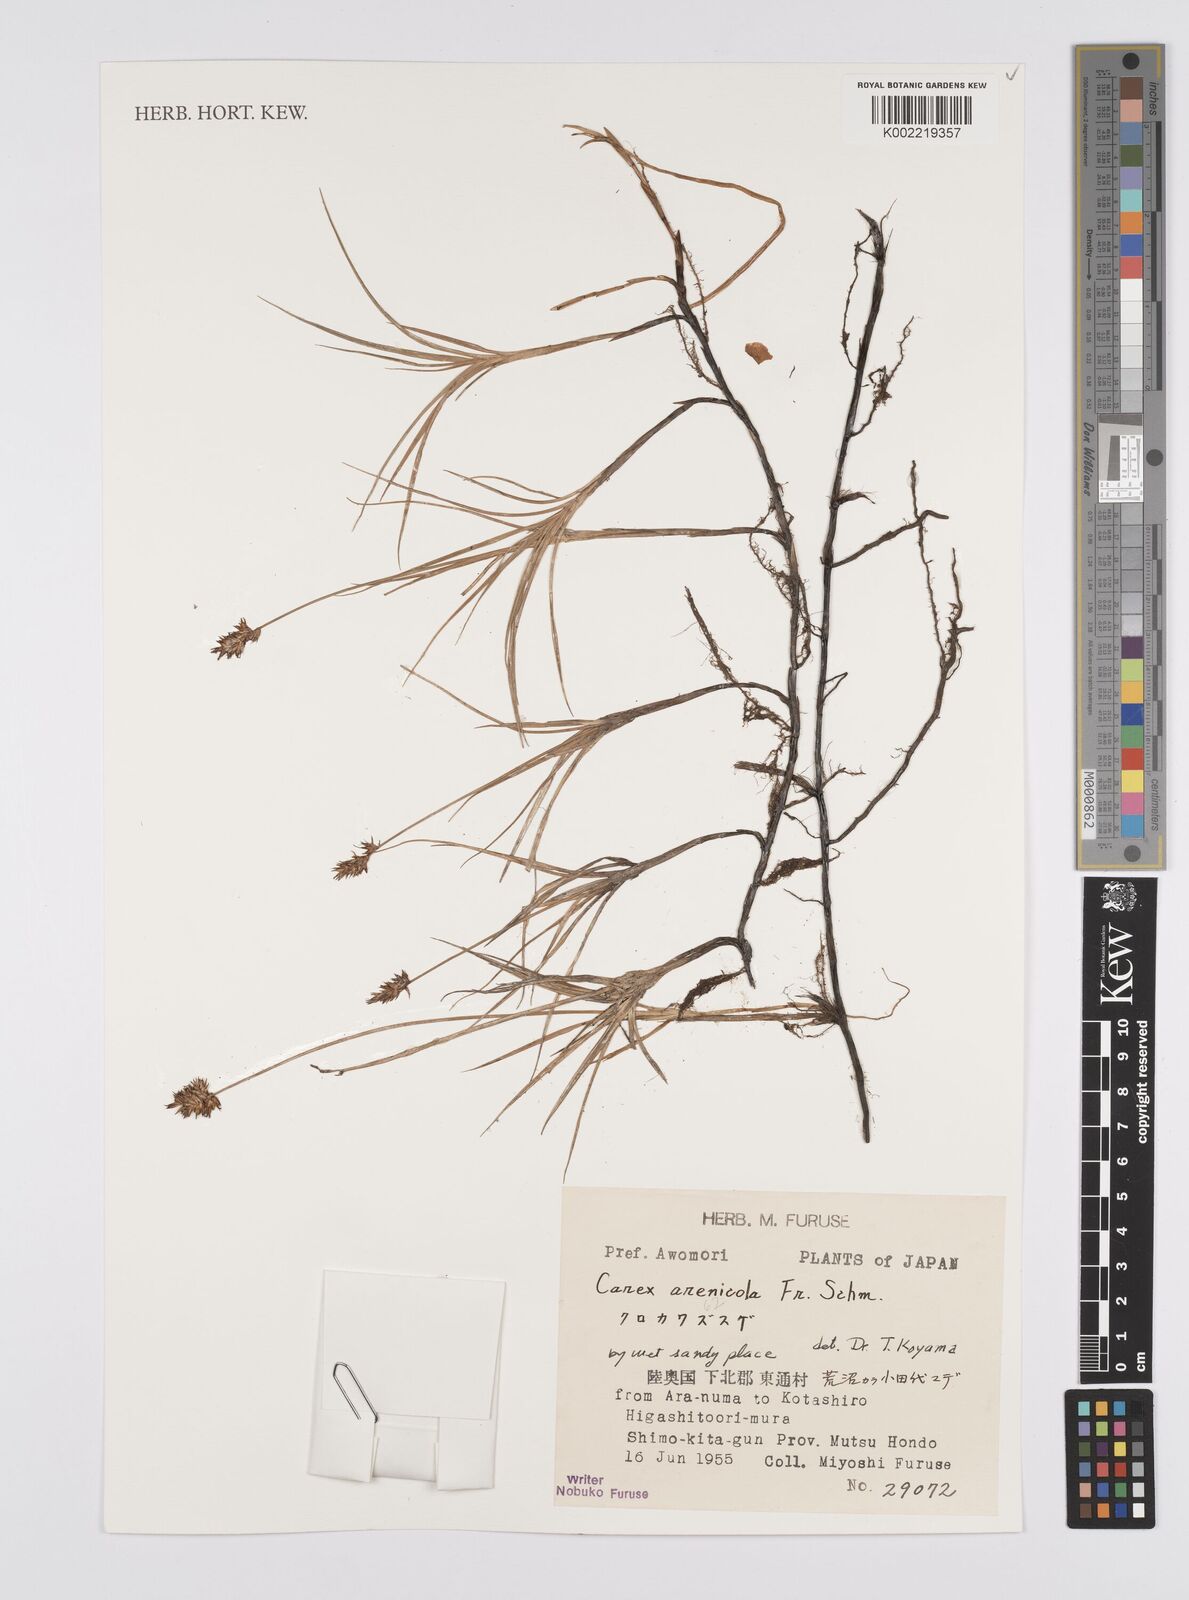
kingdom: Plantae
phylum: Tracheophyta
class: Liliopsida
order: Poales
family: Cyperaceae
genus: Carex
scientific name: Carex arenicola
